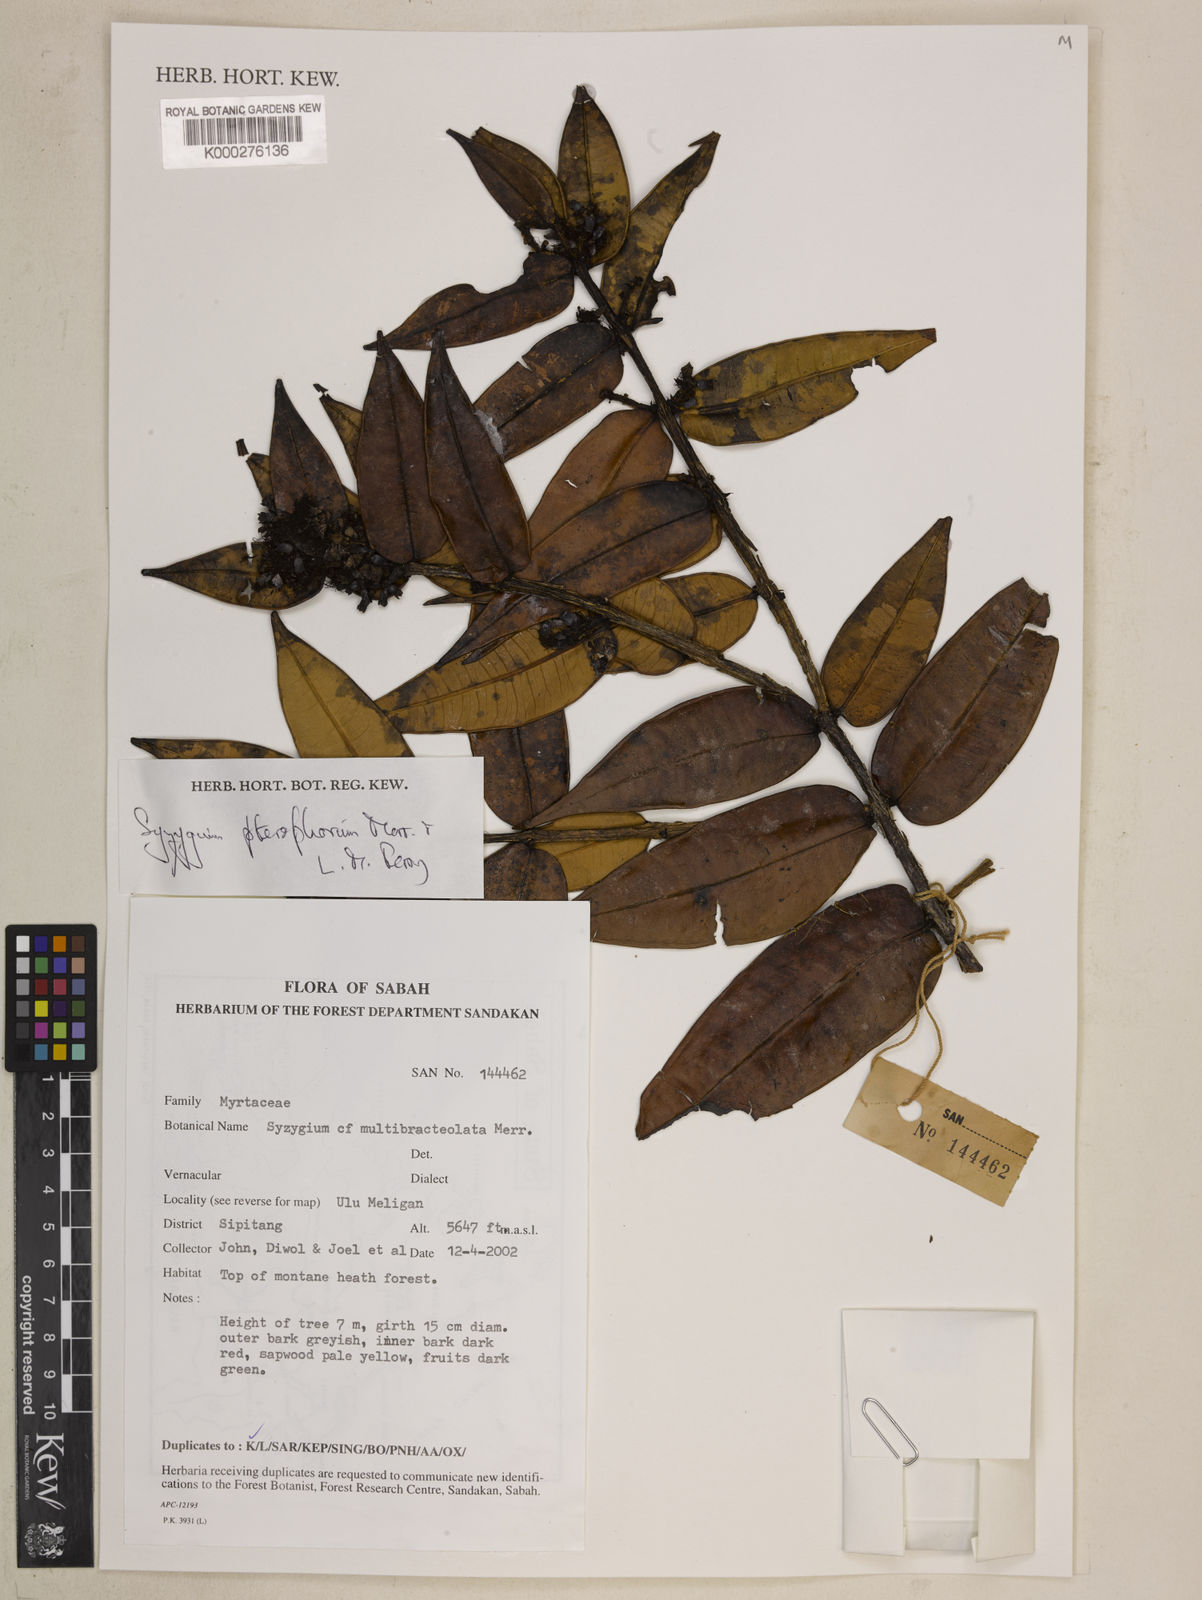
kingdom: Plantae
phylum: Tracheophyta
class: Magnoliopsida
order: Myrtales
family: Myrtaceae
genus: Syzygium
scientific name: Syzygium pterophorum
